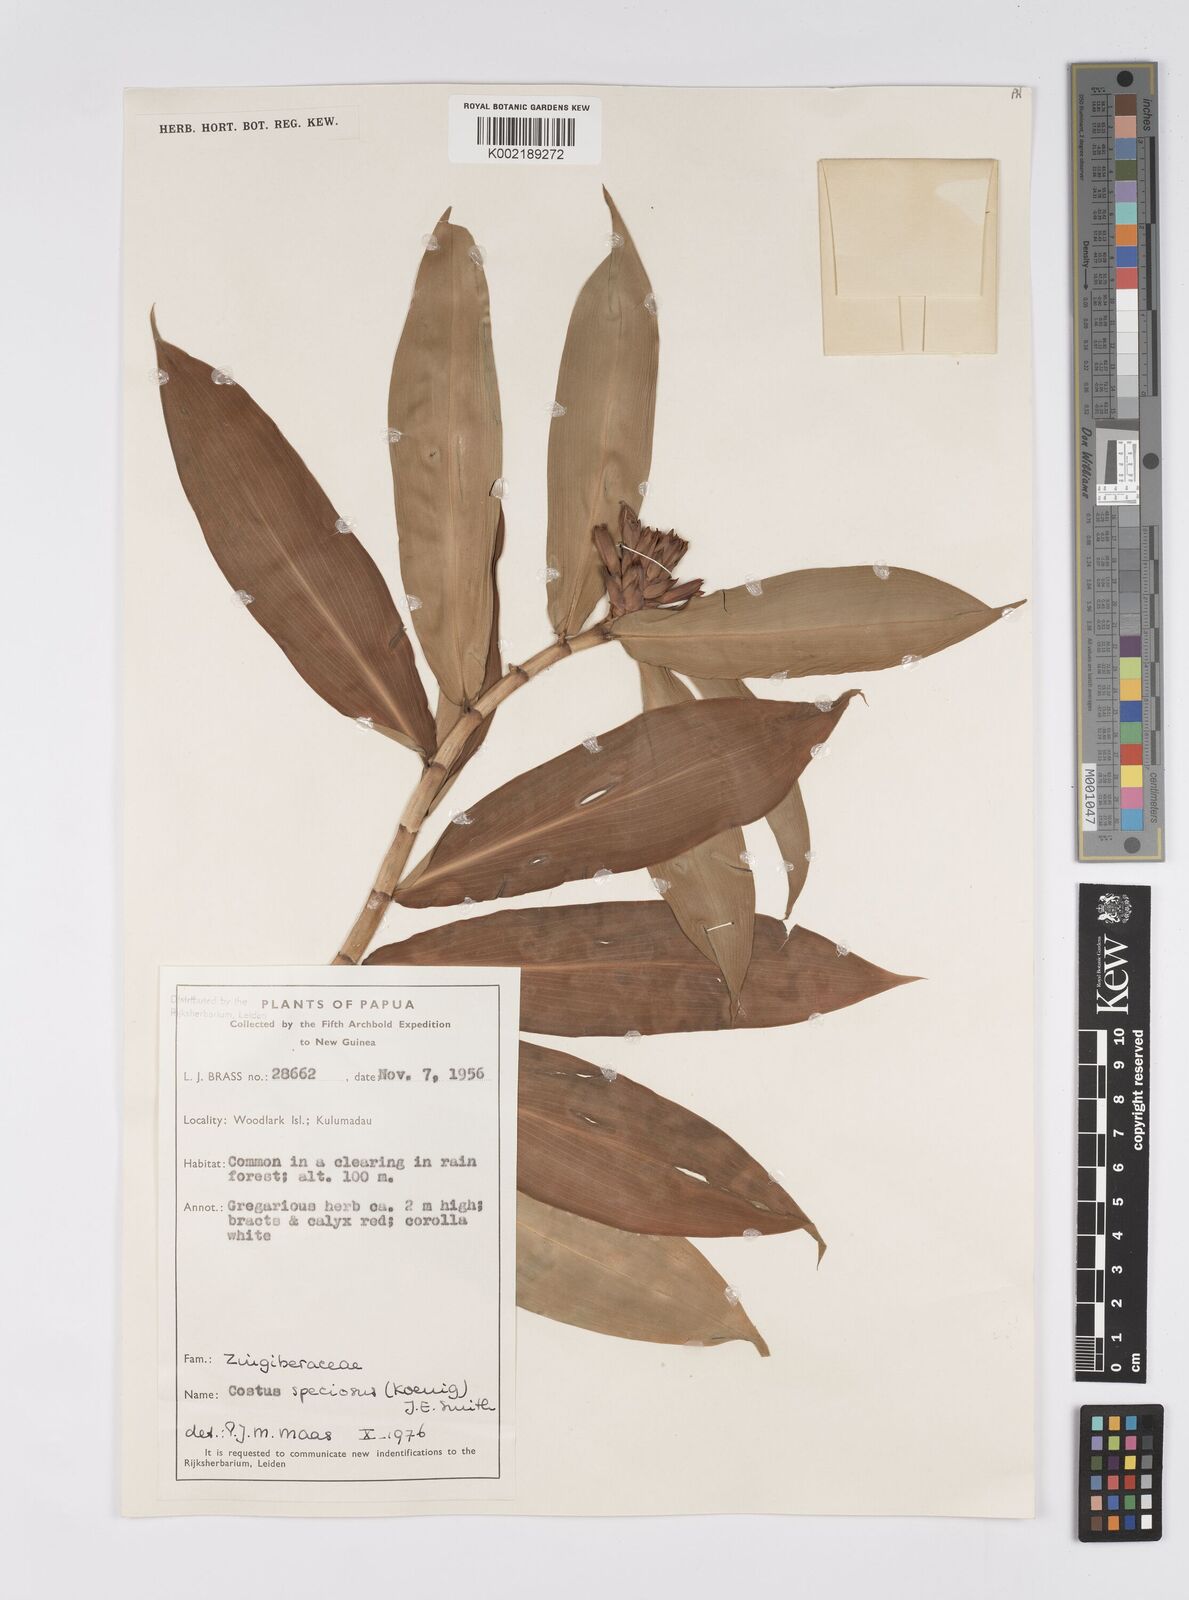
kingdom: Plantae
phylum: Tracheophyta
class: Liliopsida
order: Zingiberales
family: Costaceae
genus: Hellenia
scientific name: Hellenia speciosa
